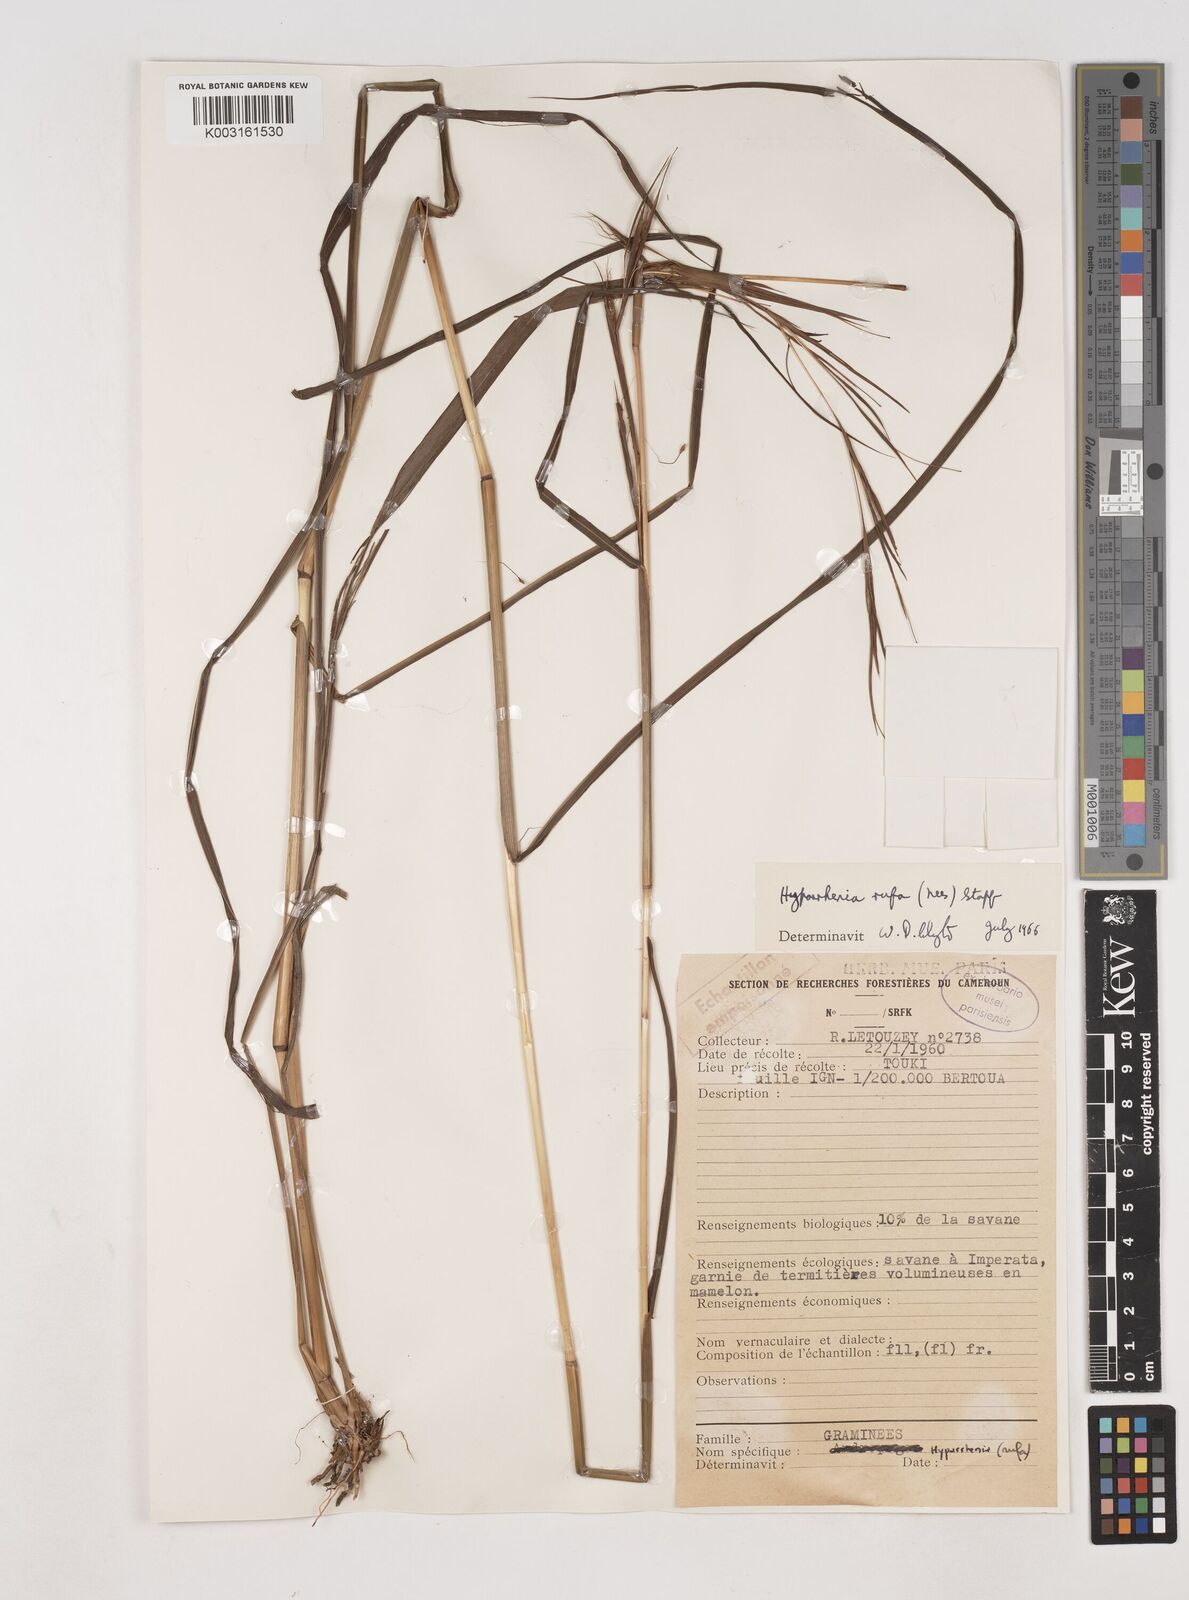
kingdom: Plantae
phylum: Tracheophyta
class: Liliopsida
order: Poales
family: Poaceae
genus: Hyparrhenia
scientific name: Hyparrhenia rufa
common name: Jaraguagrass
